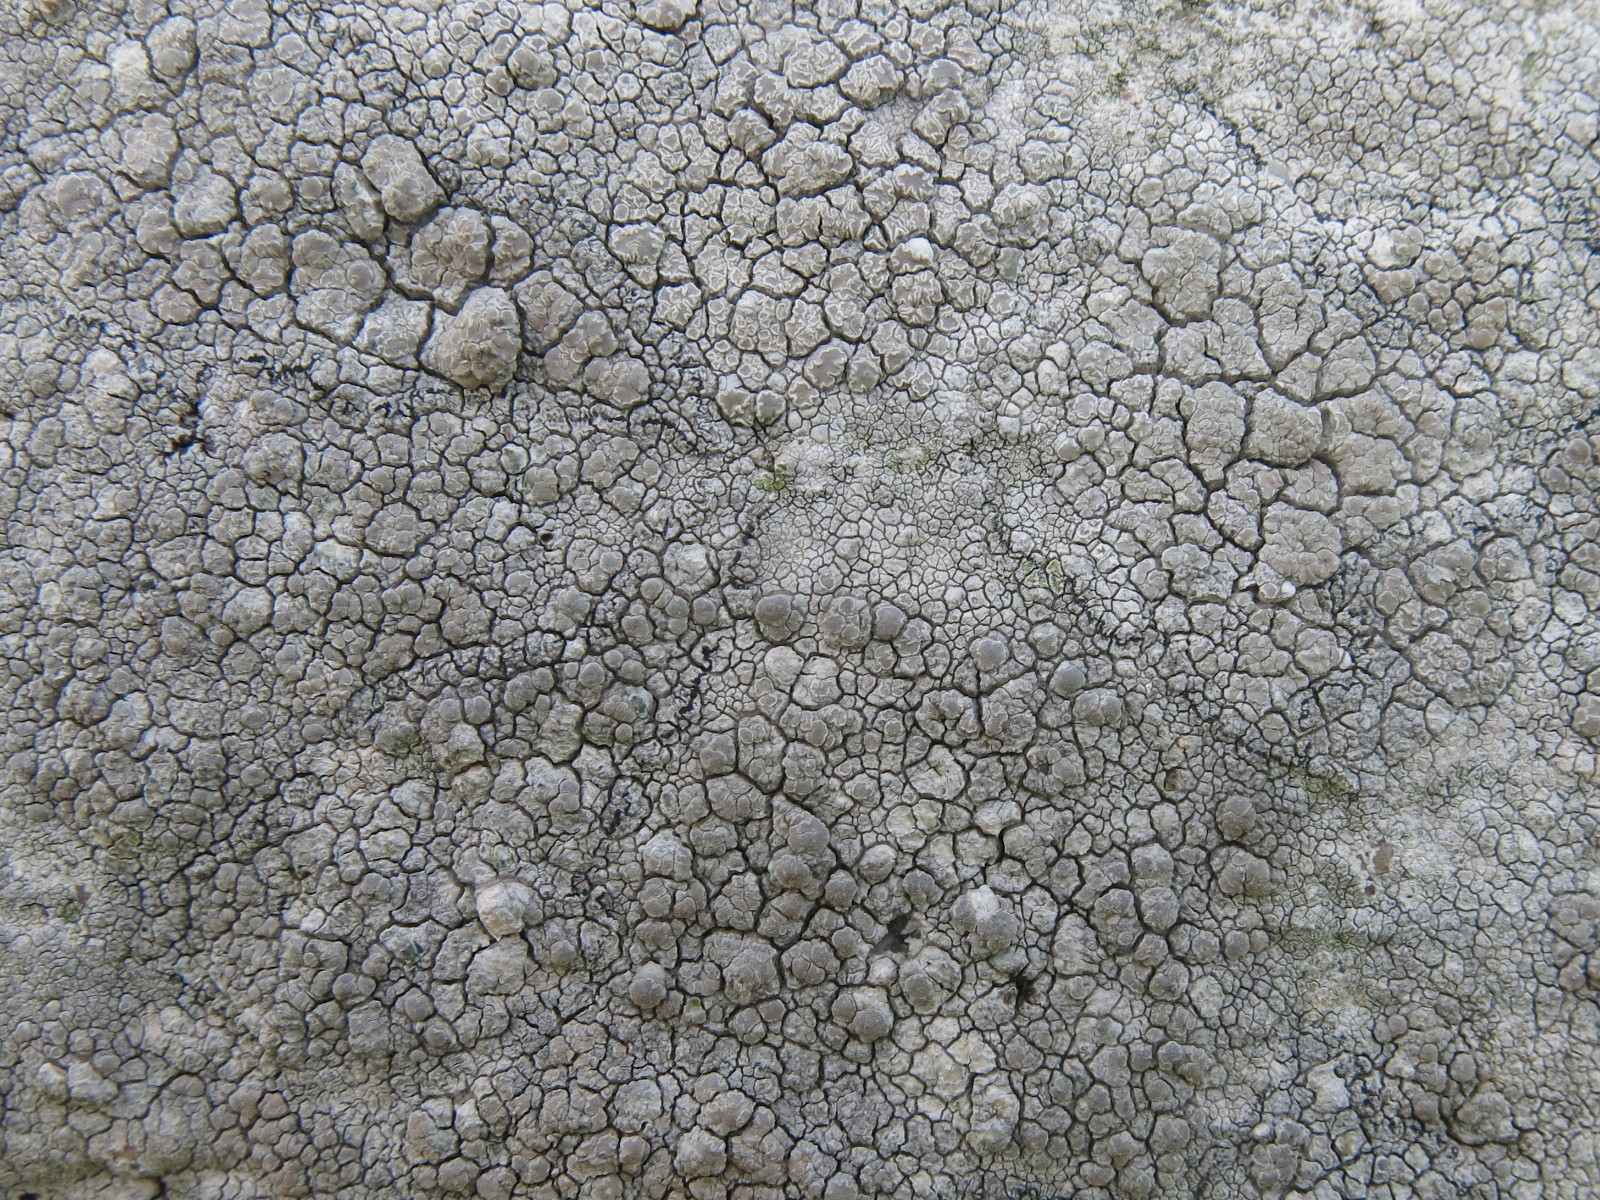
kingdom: Fungi
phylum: Ascomycota
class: Lecanoromycetes
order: Lecanorales
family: Lecanoraceae
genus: Glaucomaria
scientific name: Glaucomaria rupicola
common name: stengærde-kantskivelav
